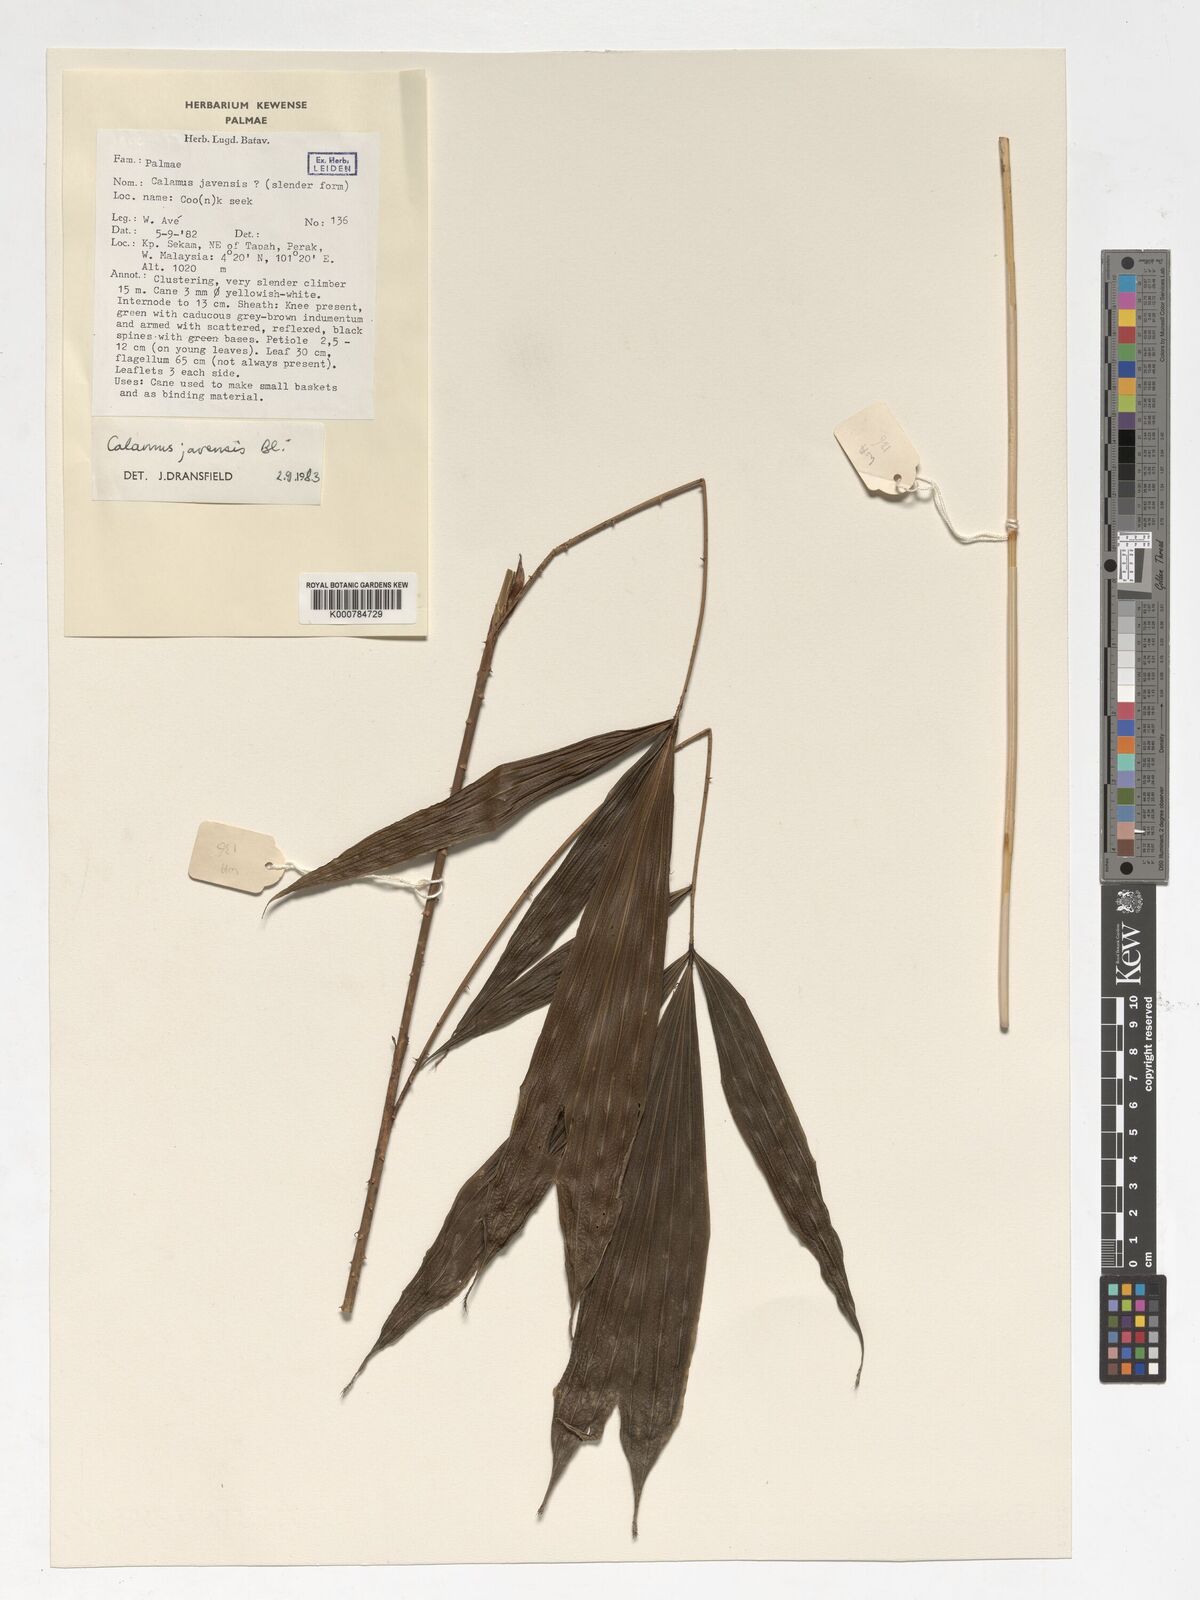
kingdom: Plantae
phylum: Tracheophyta
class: Liliopsida
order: Arecales
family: Arecaceae
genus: Calamus
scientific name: Calamus javensis
